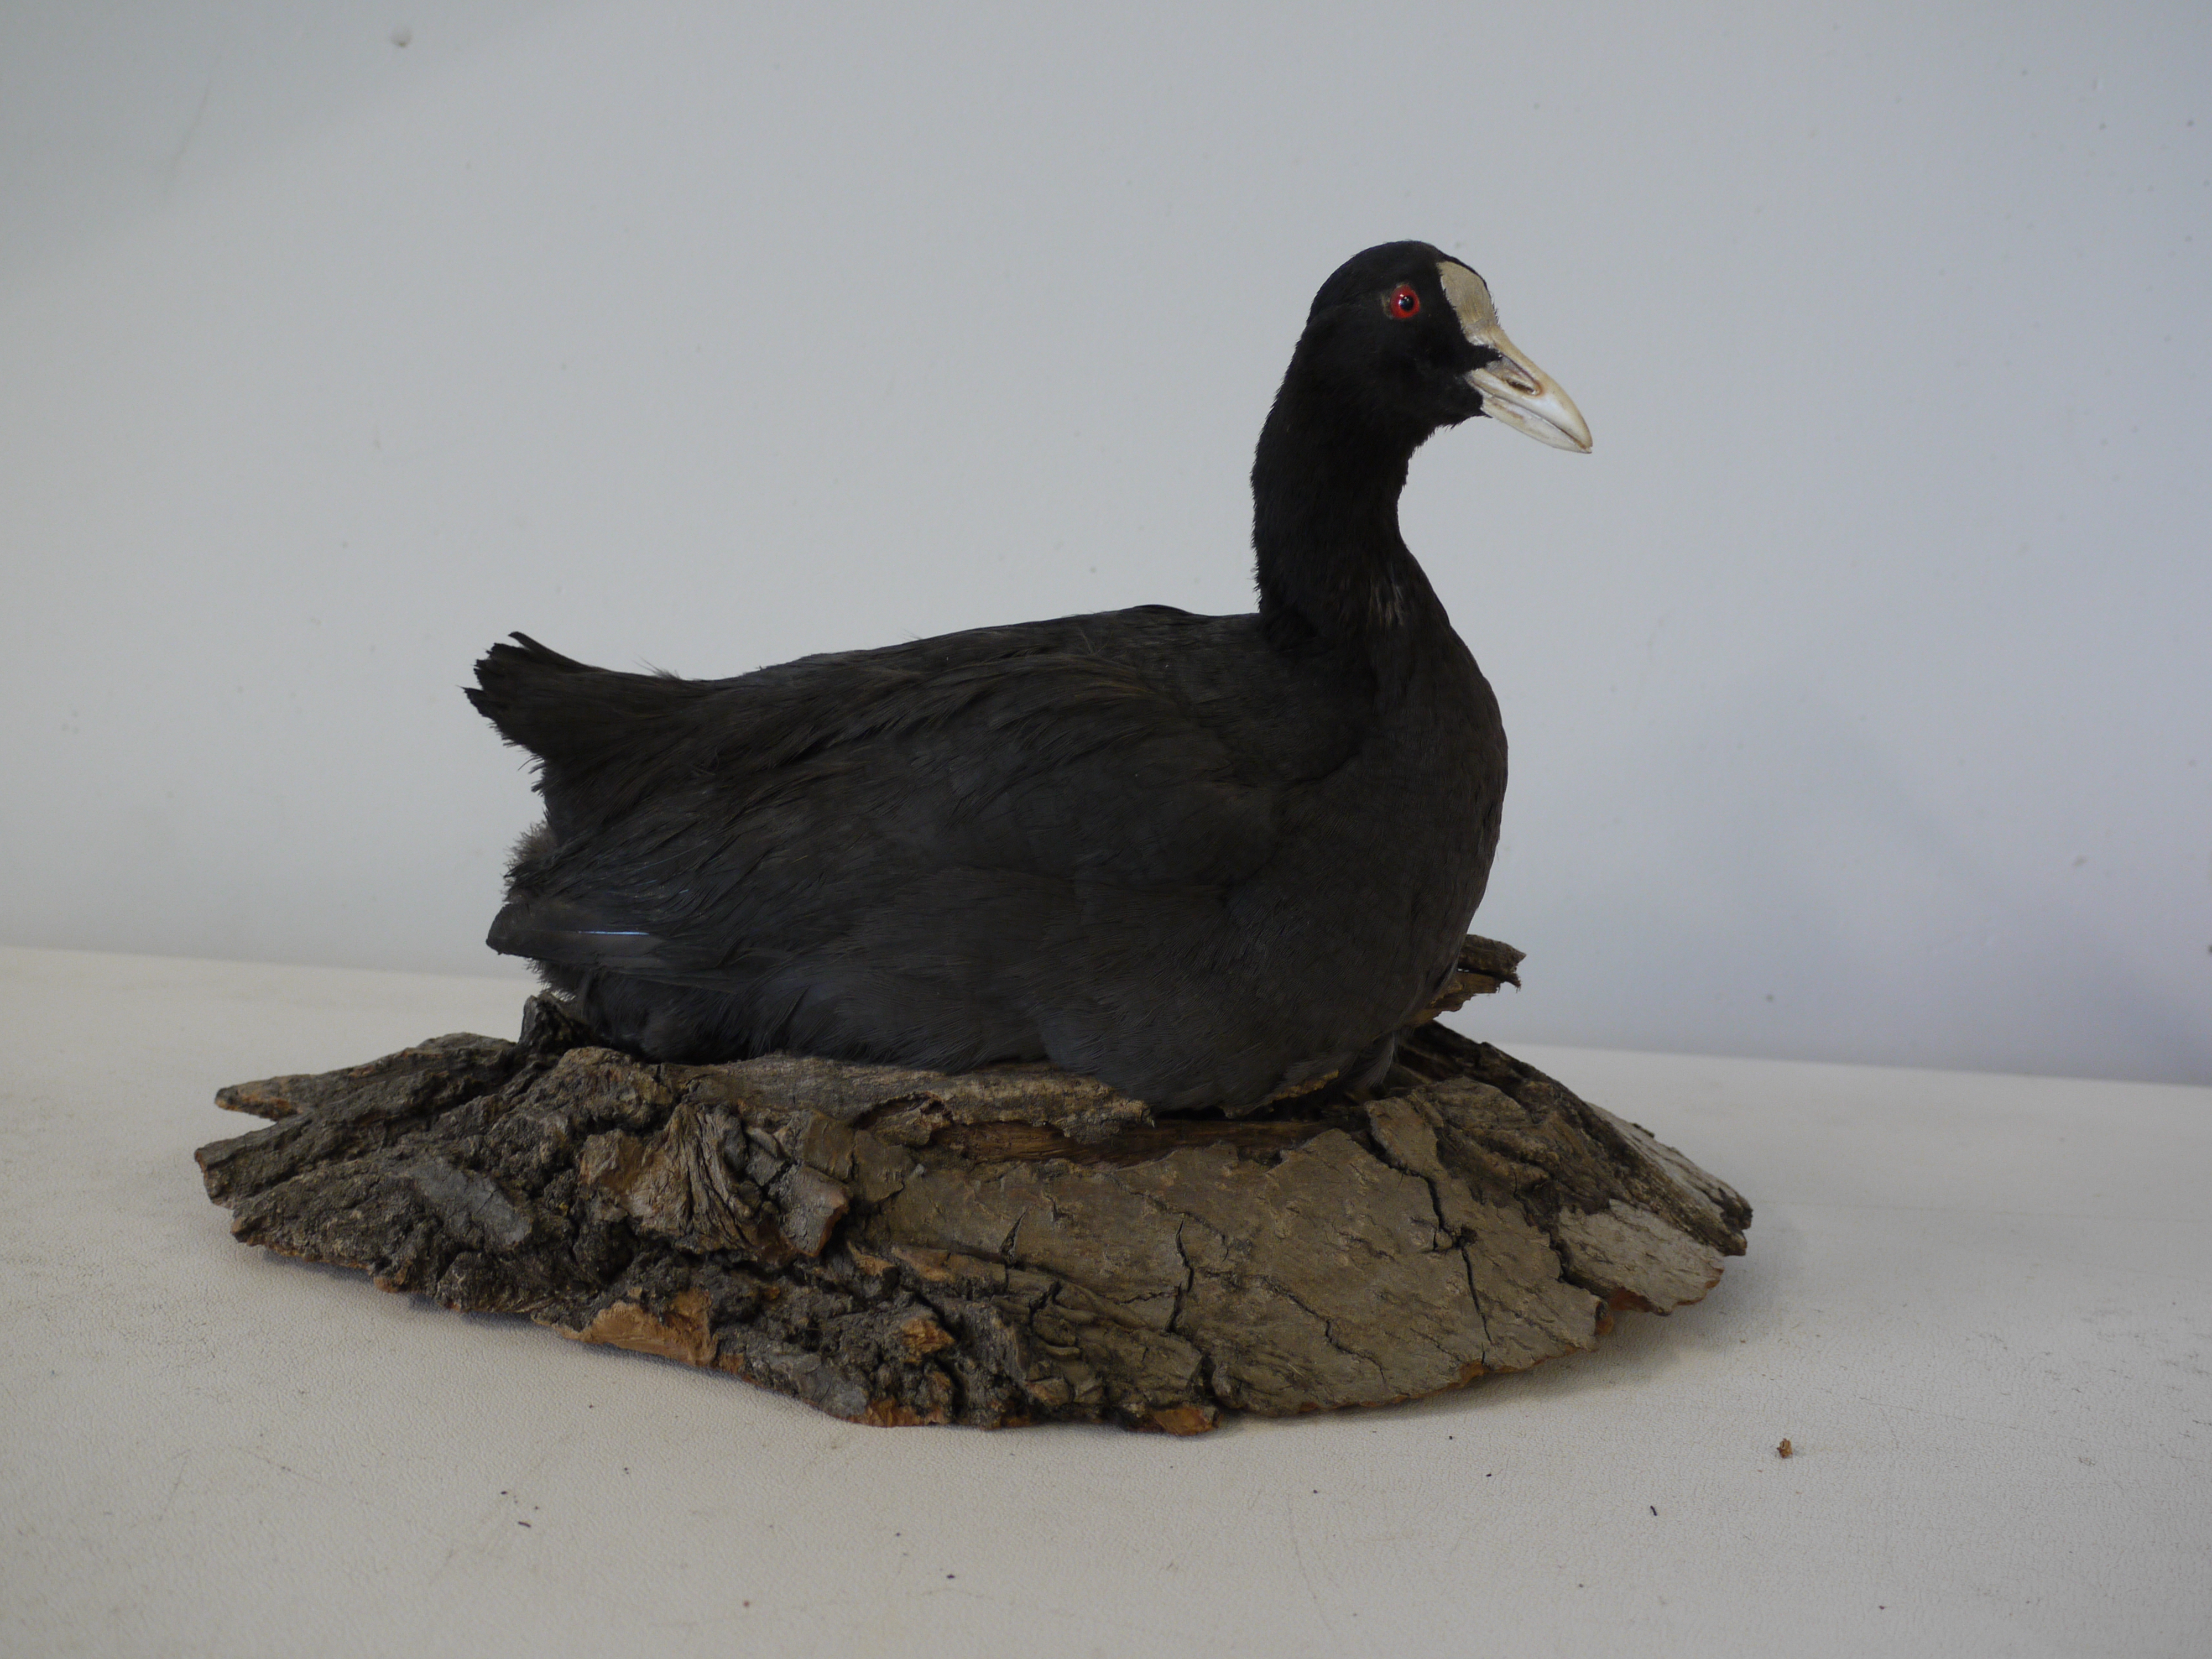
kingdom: Animalia
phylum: Chordata
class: Aves
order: Gruiformes
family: Rallidae
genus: Fulica
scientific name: Fulica atra
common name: Eurasian coot
